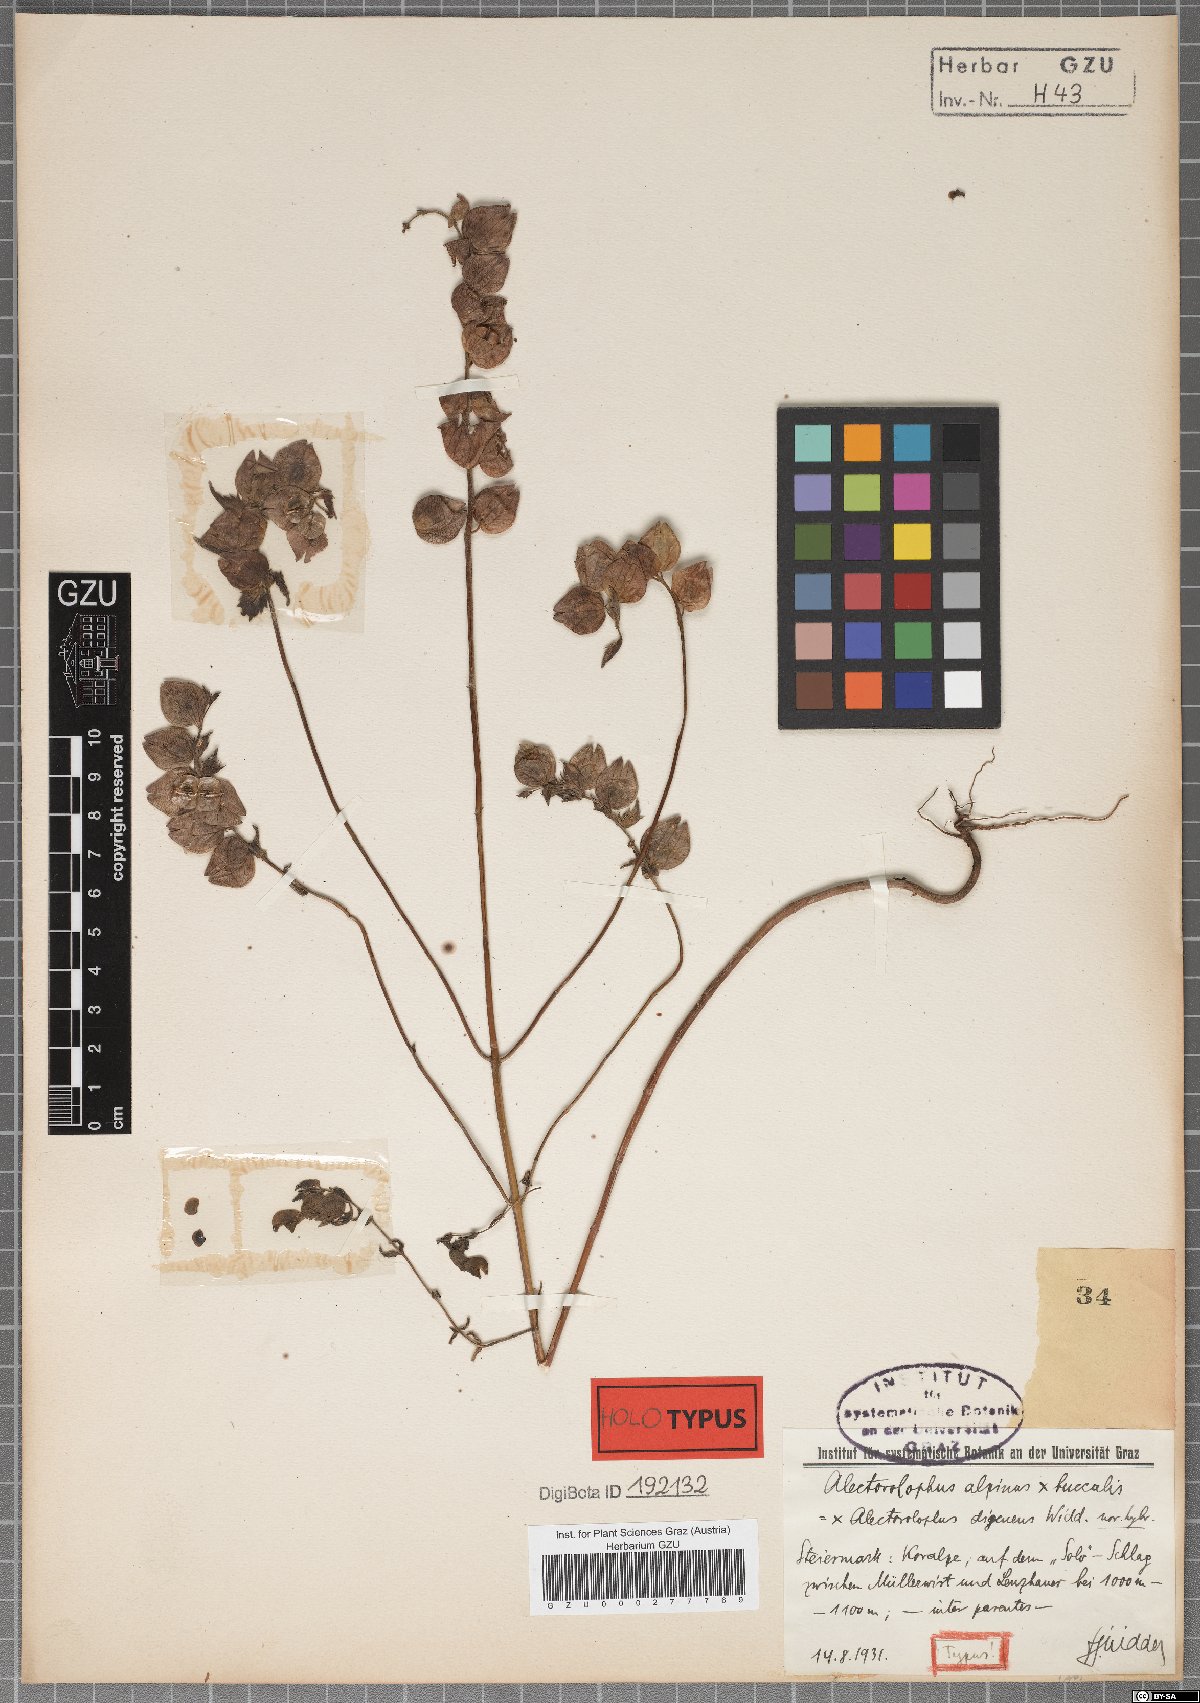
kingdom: Plantae
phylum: Tracheophyta
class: Magnoliopsida
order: Lamiales
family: Scrophulariaceae
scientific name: Scrophulariaceae
